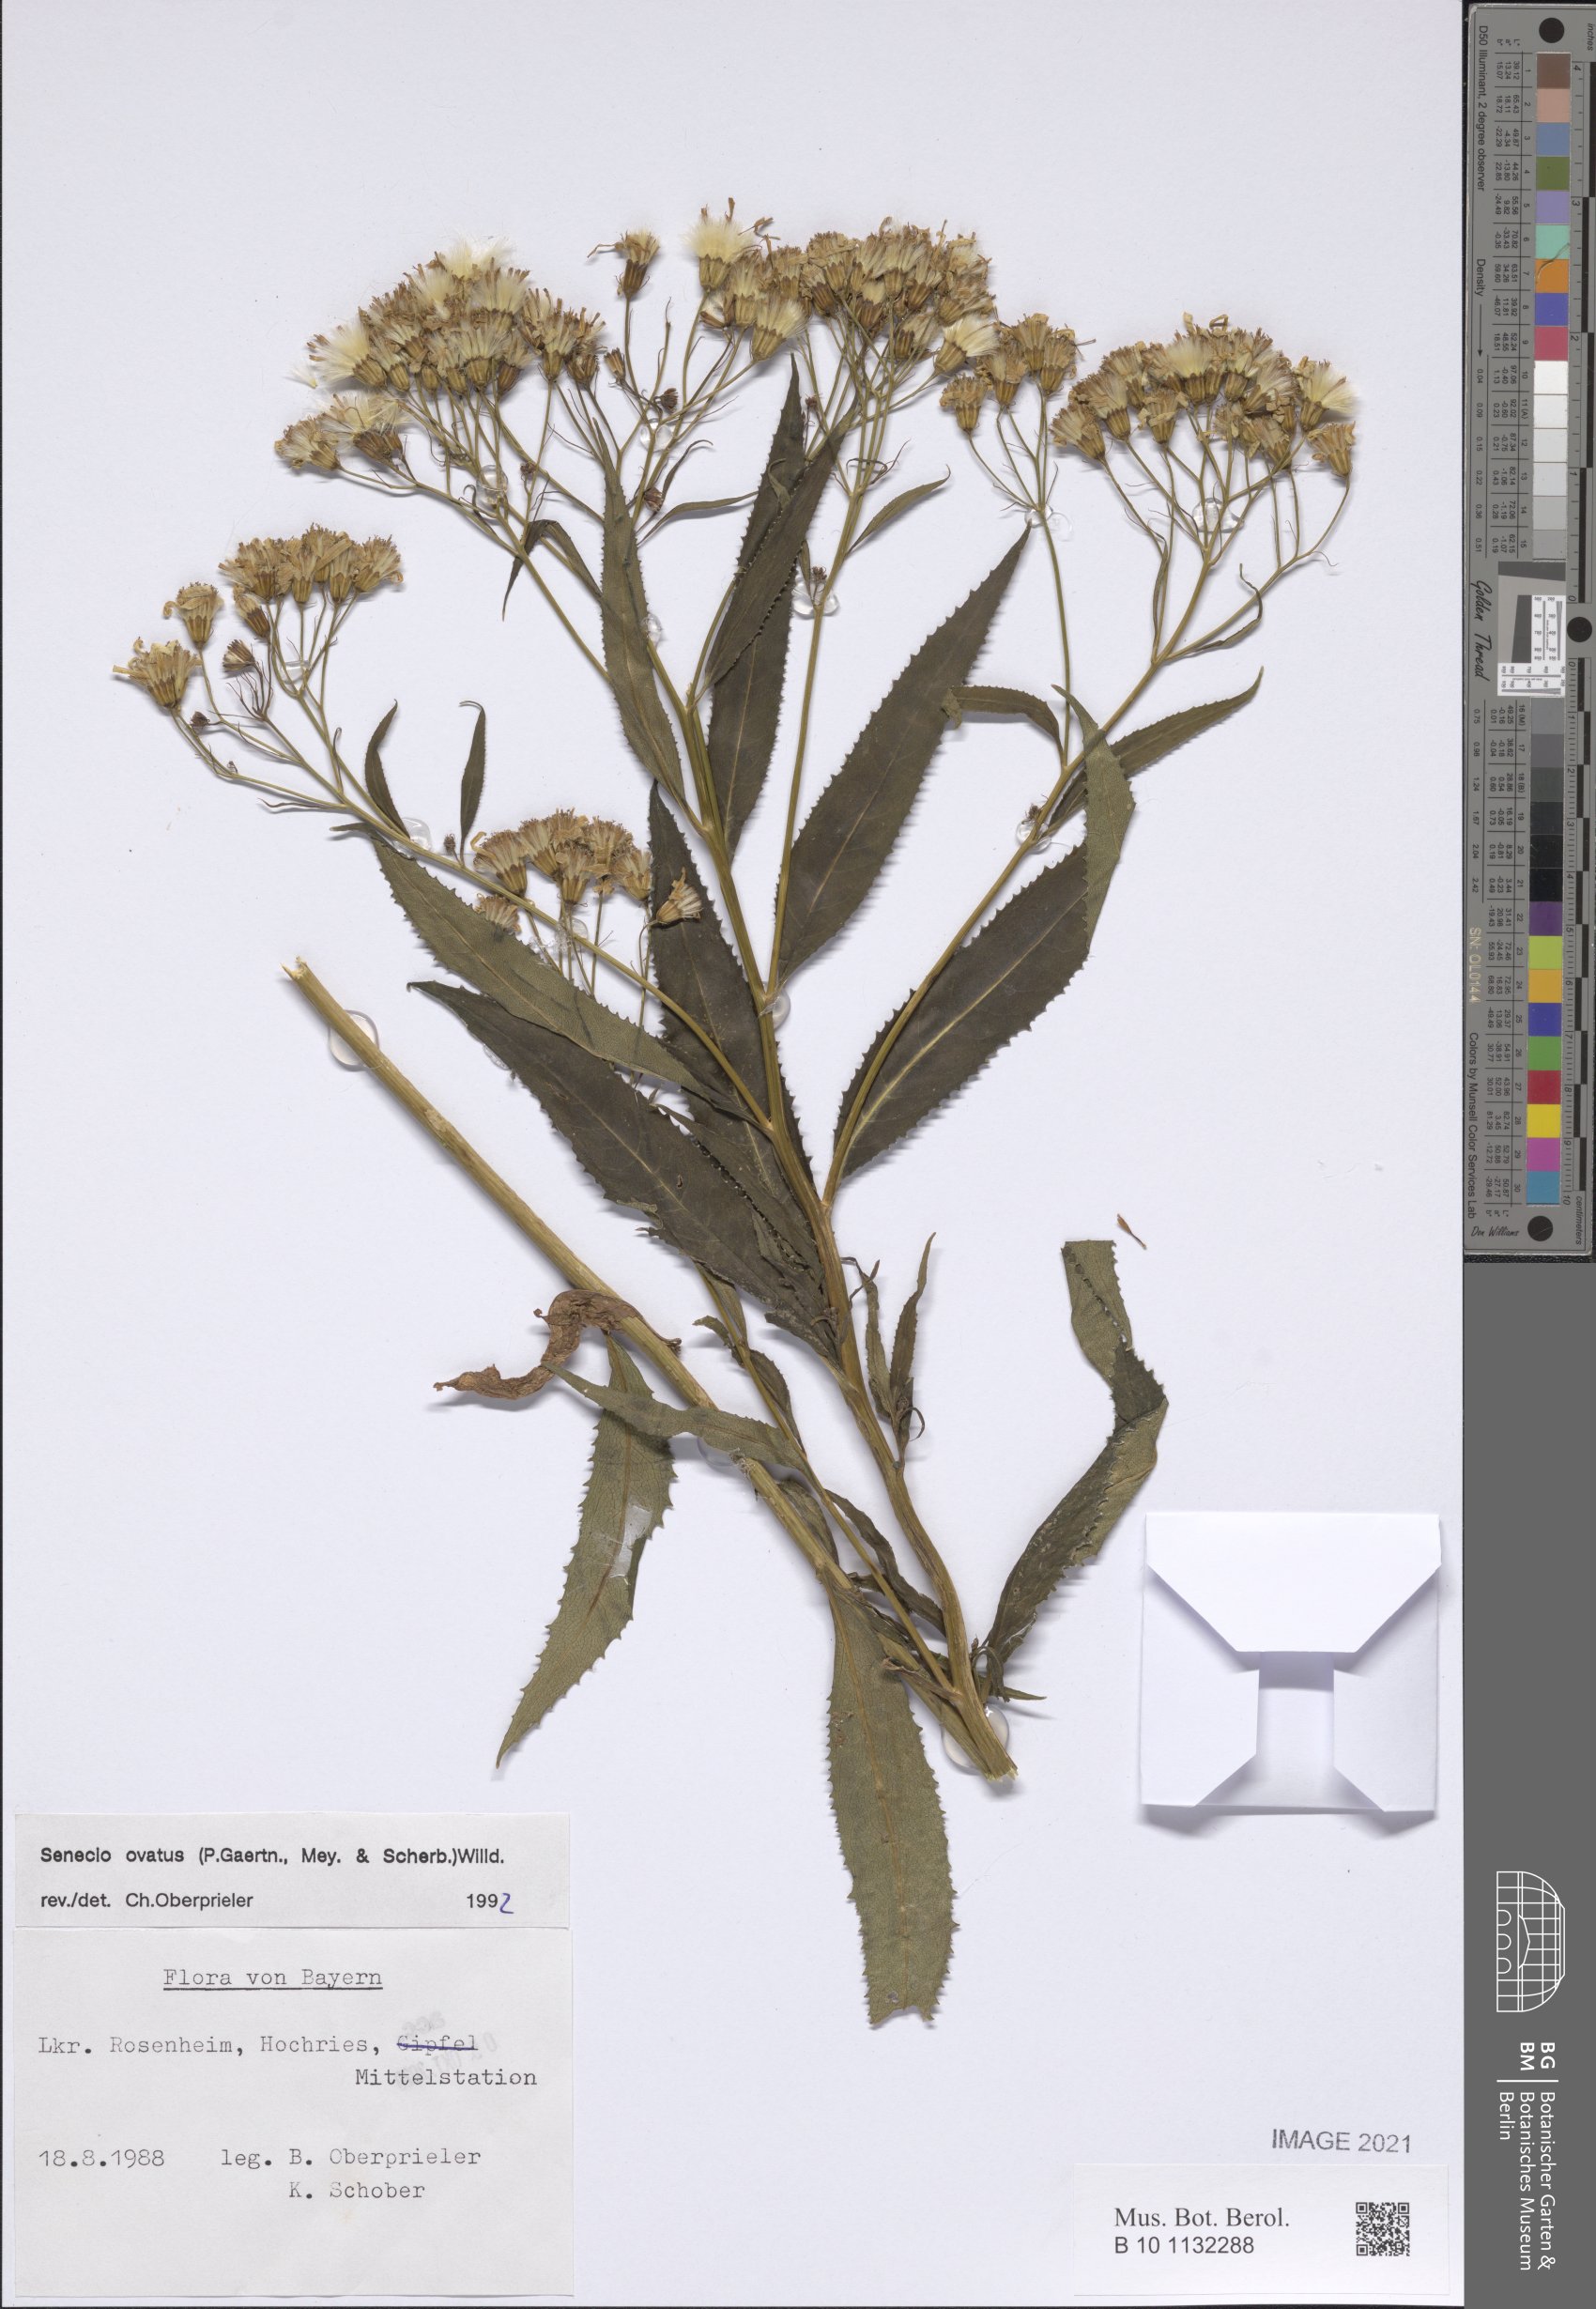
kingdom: Plantae
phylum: Tracheophyta
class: Magnoliopsida
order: Asterales
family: Asteraceae
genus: Senecio
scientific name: Senecio ovatus
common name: Wood ragwort
